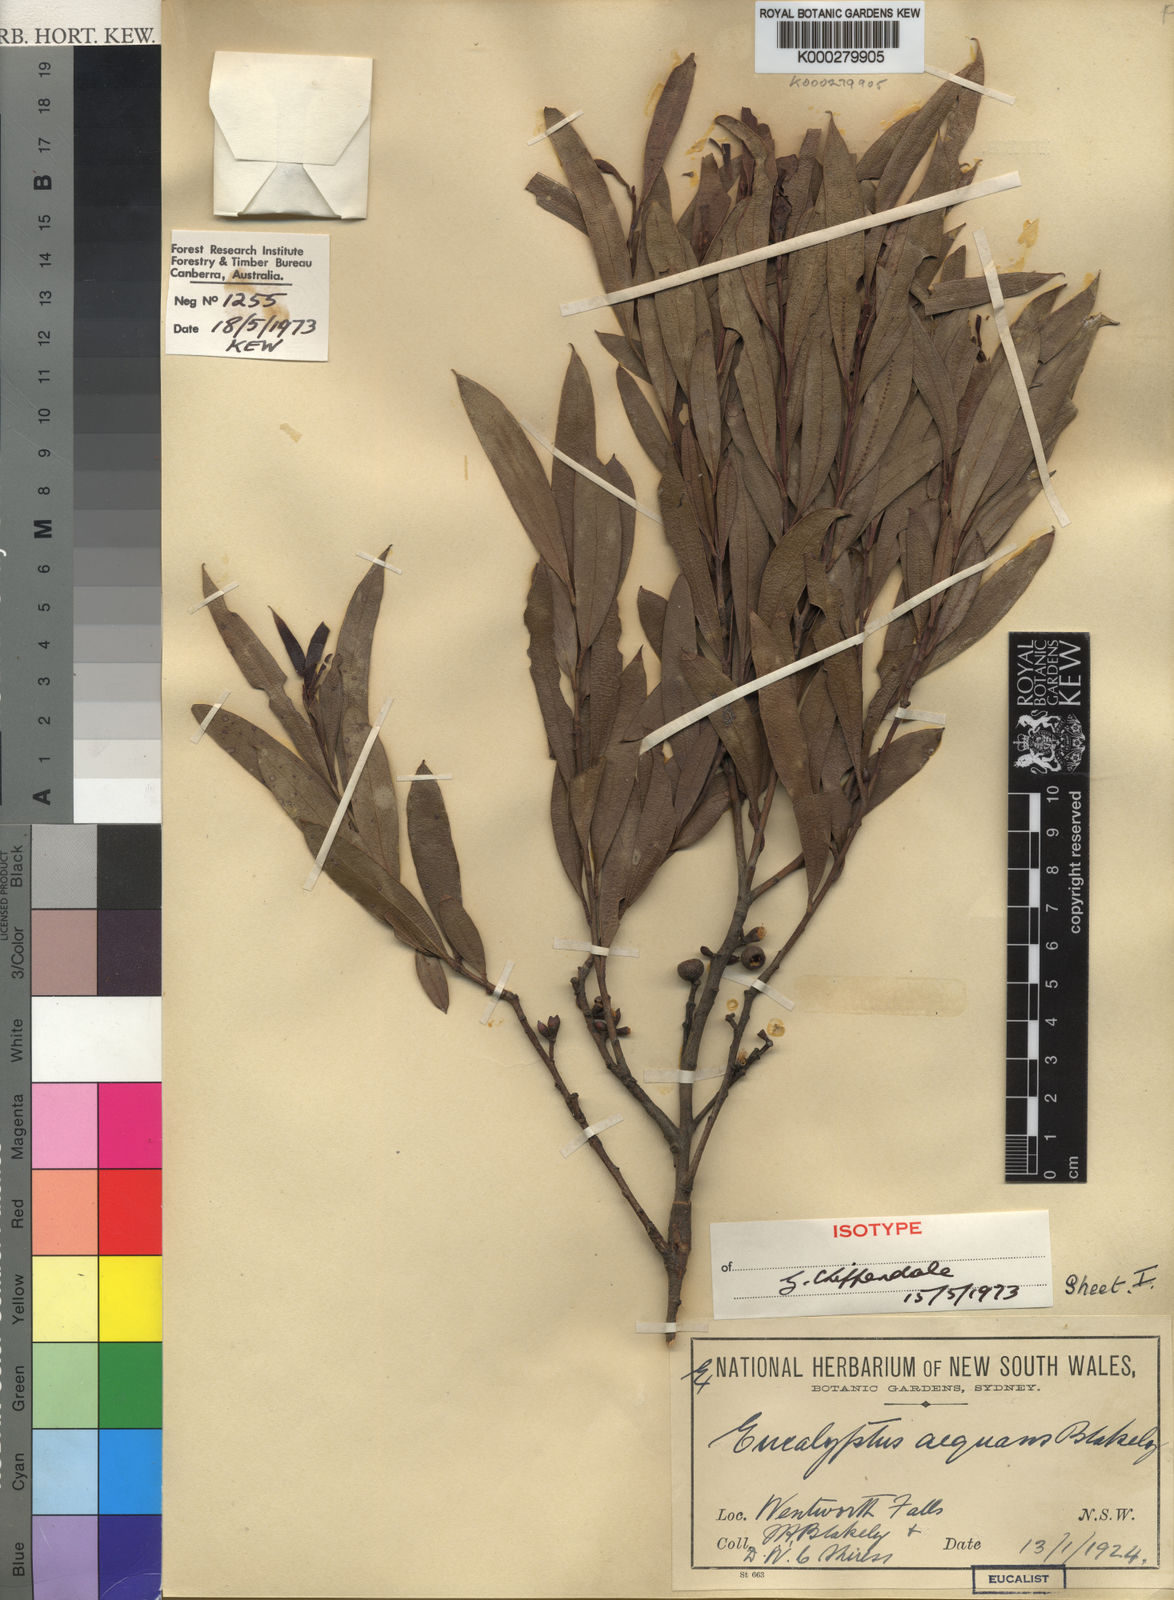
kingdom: Plantae
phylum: Tracheophyta
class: Magnoliopsida
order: Myrtales
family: Myrtaceae
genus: Eucalyptus
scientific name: Eucalyptus aequans
